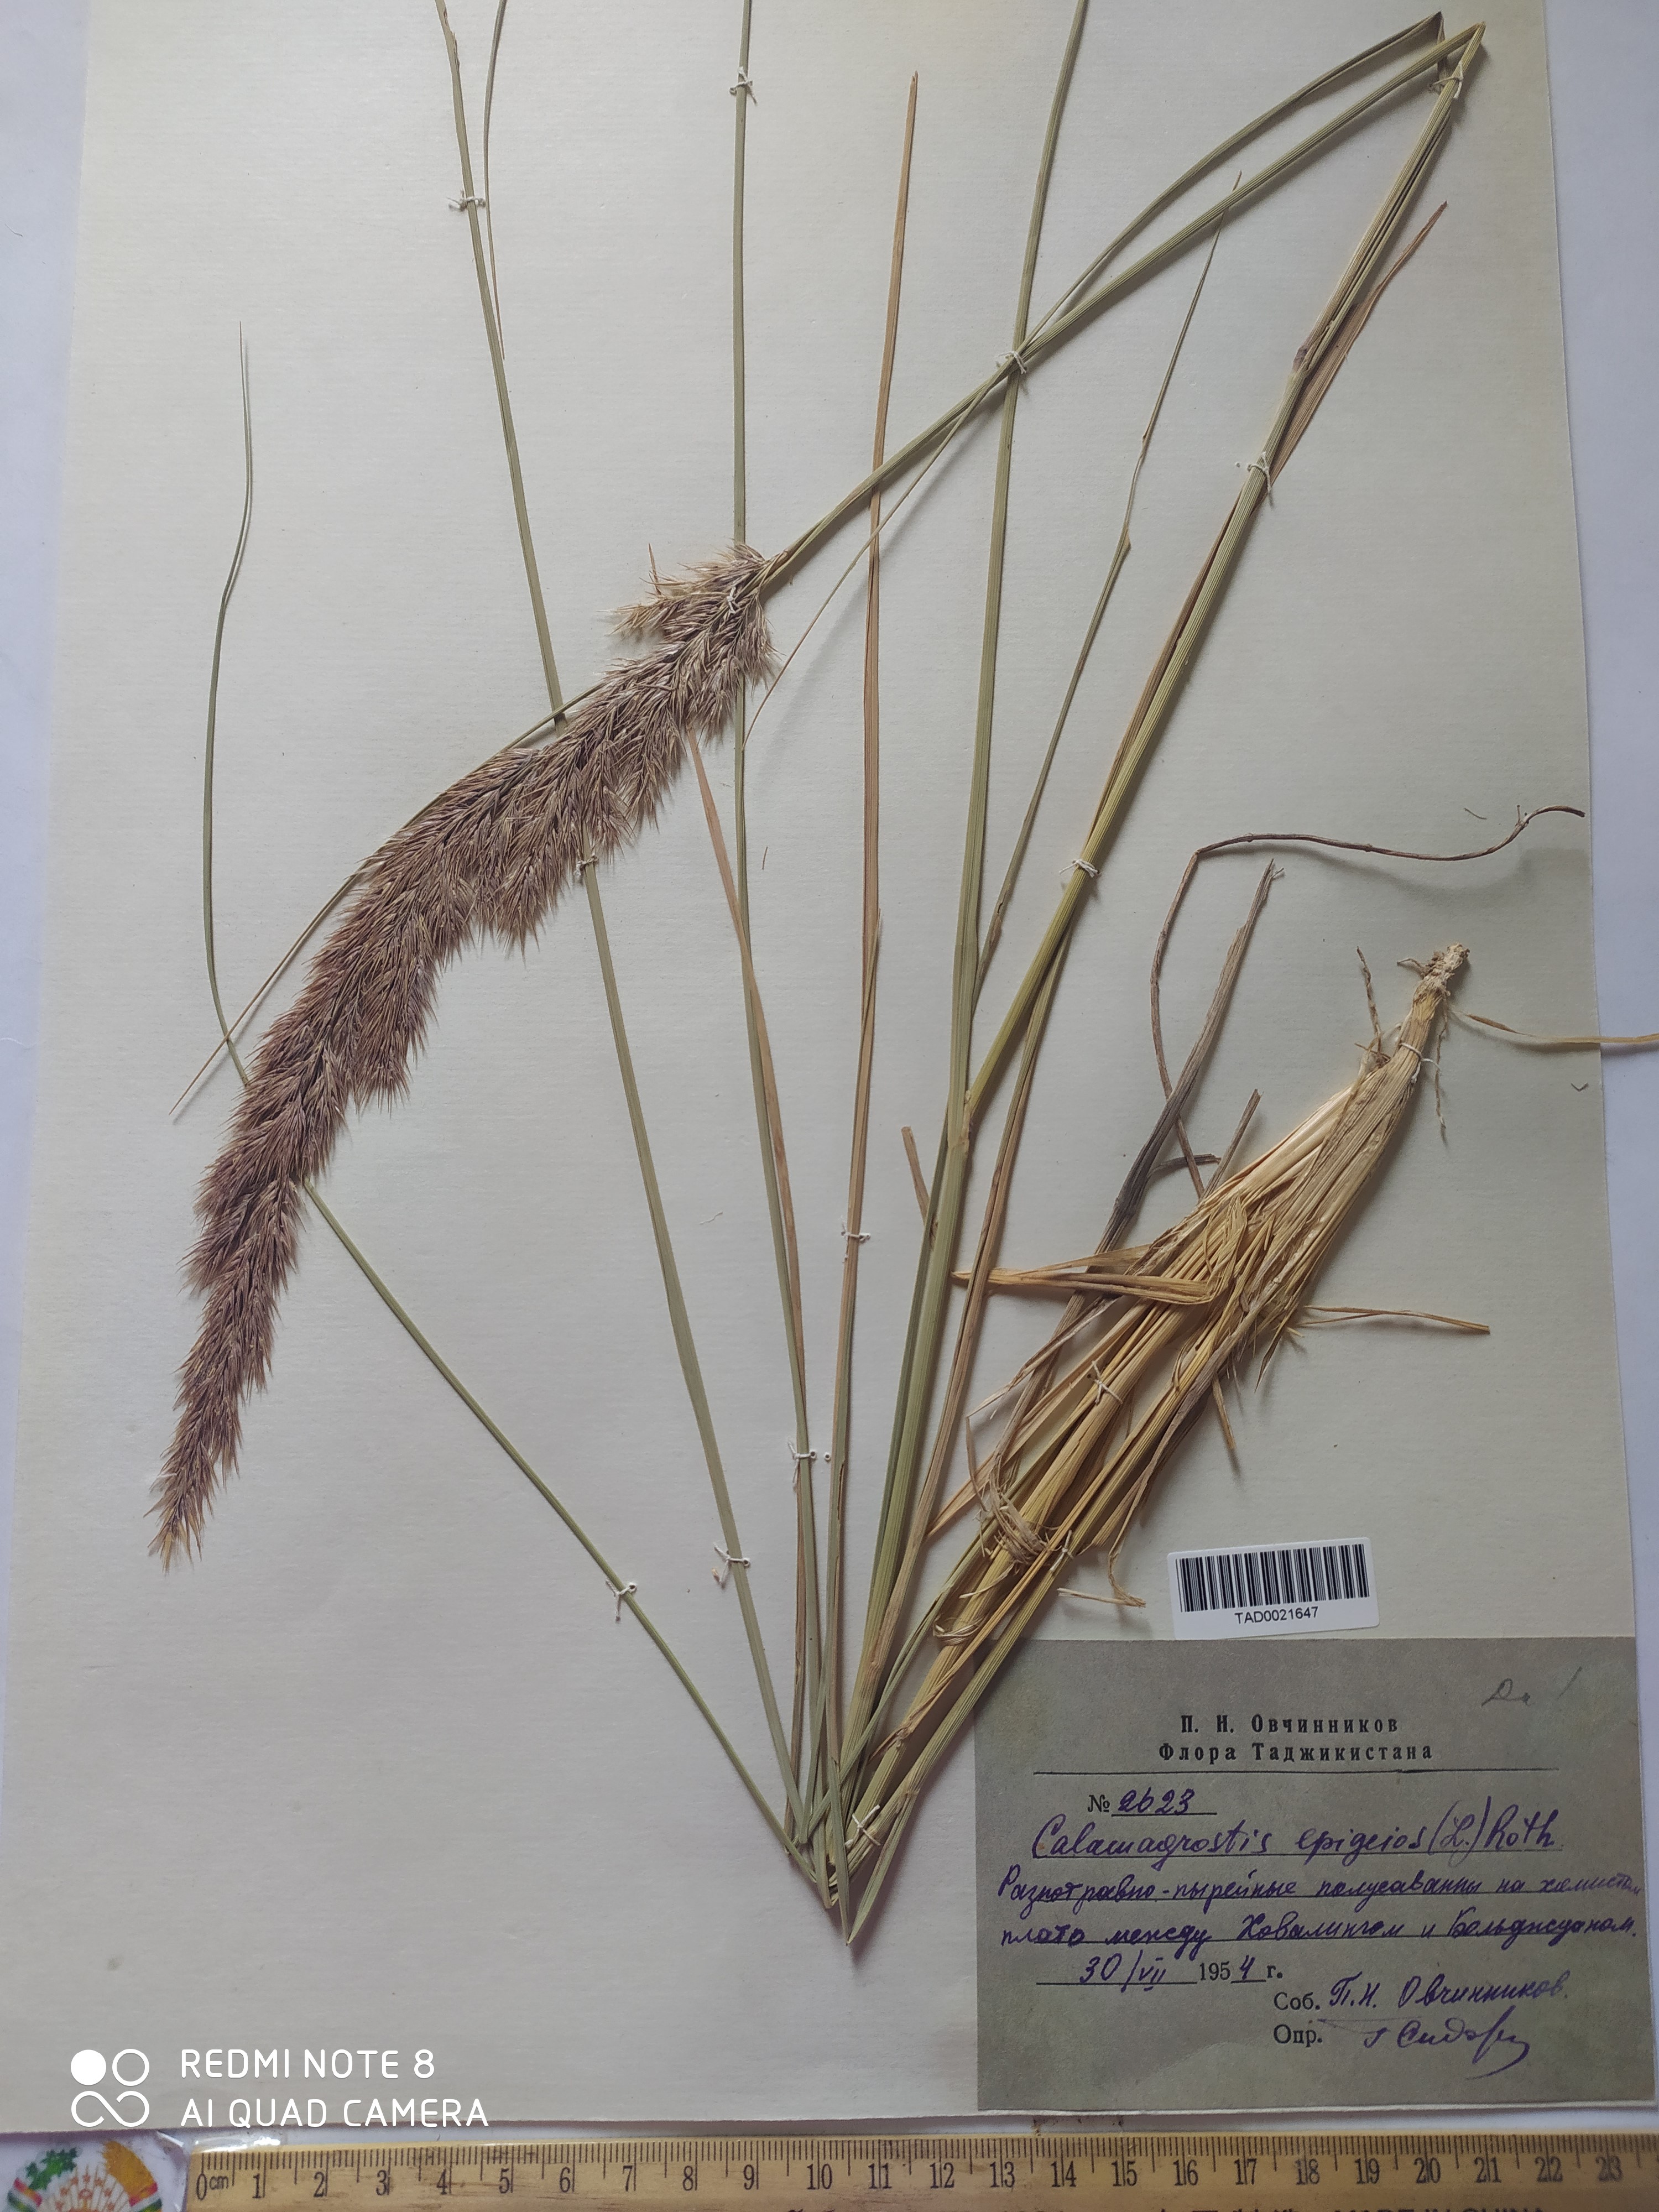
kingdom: Plantae
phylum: Tracheophyta
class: Liliopsida
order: Poales
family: Poaceae
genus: Calamagrostis
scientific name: Calamagrostis epigejos
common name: Wood small-reed
